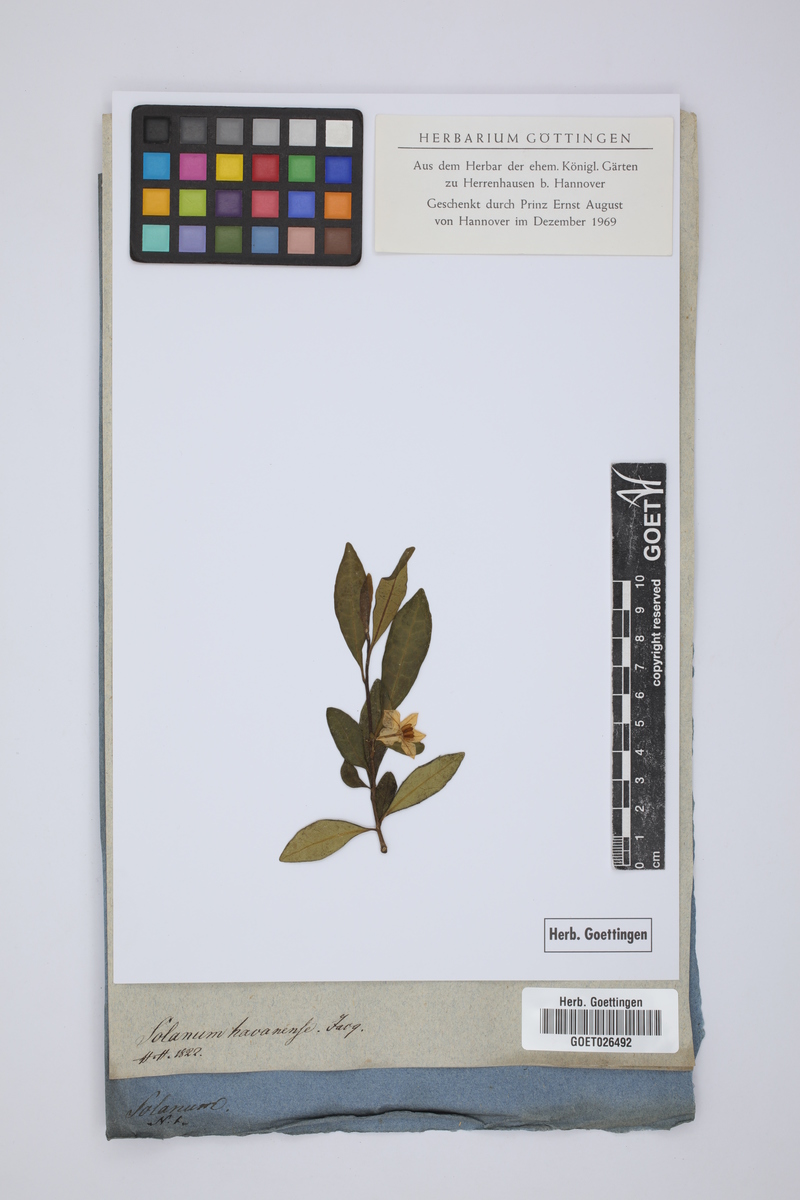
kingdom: Plantae
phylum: Tracheophyta
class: Magnoliopsida
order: Solanales
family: Solanaceae
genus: Solanum
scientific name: Solanum nitidum
